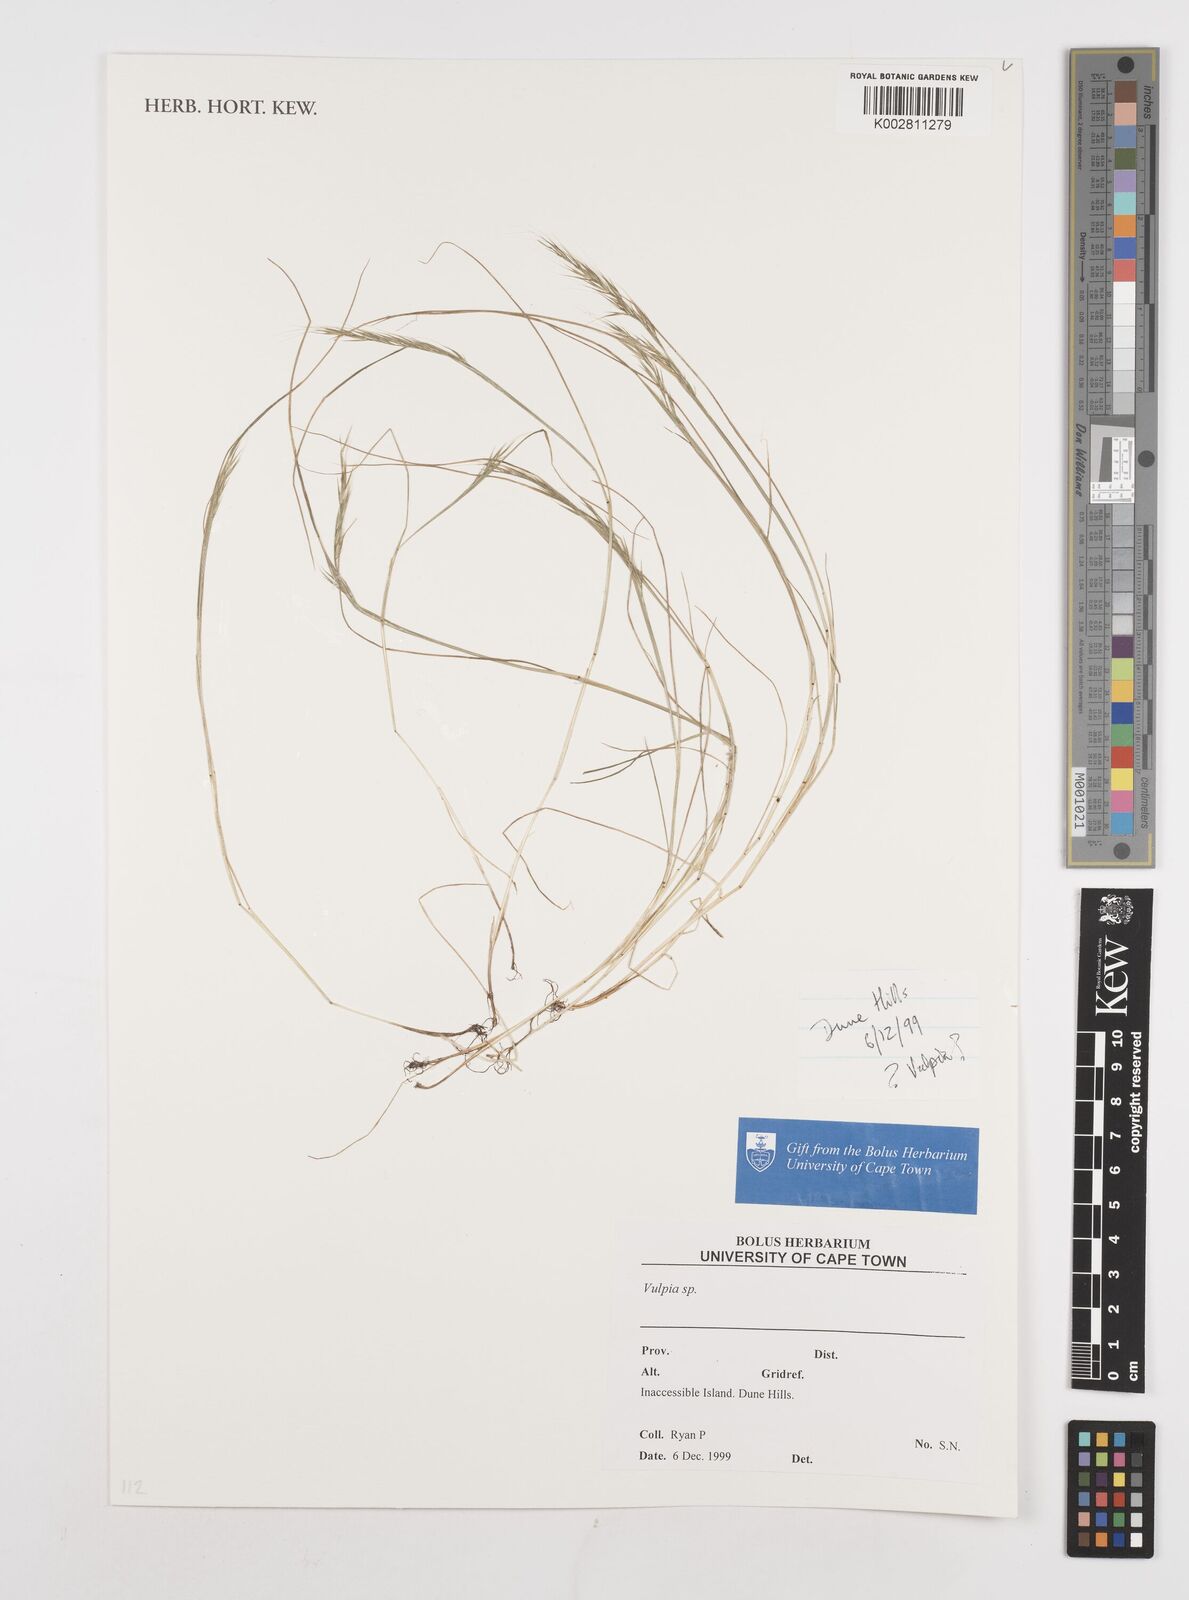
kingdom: Plantae
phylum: Tracheophyta
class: Liliopsida
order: Poales
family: Poaceae
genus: Festuca
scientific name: Festuca bromoides
